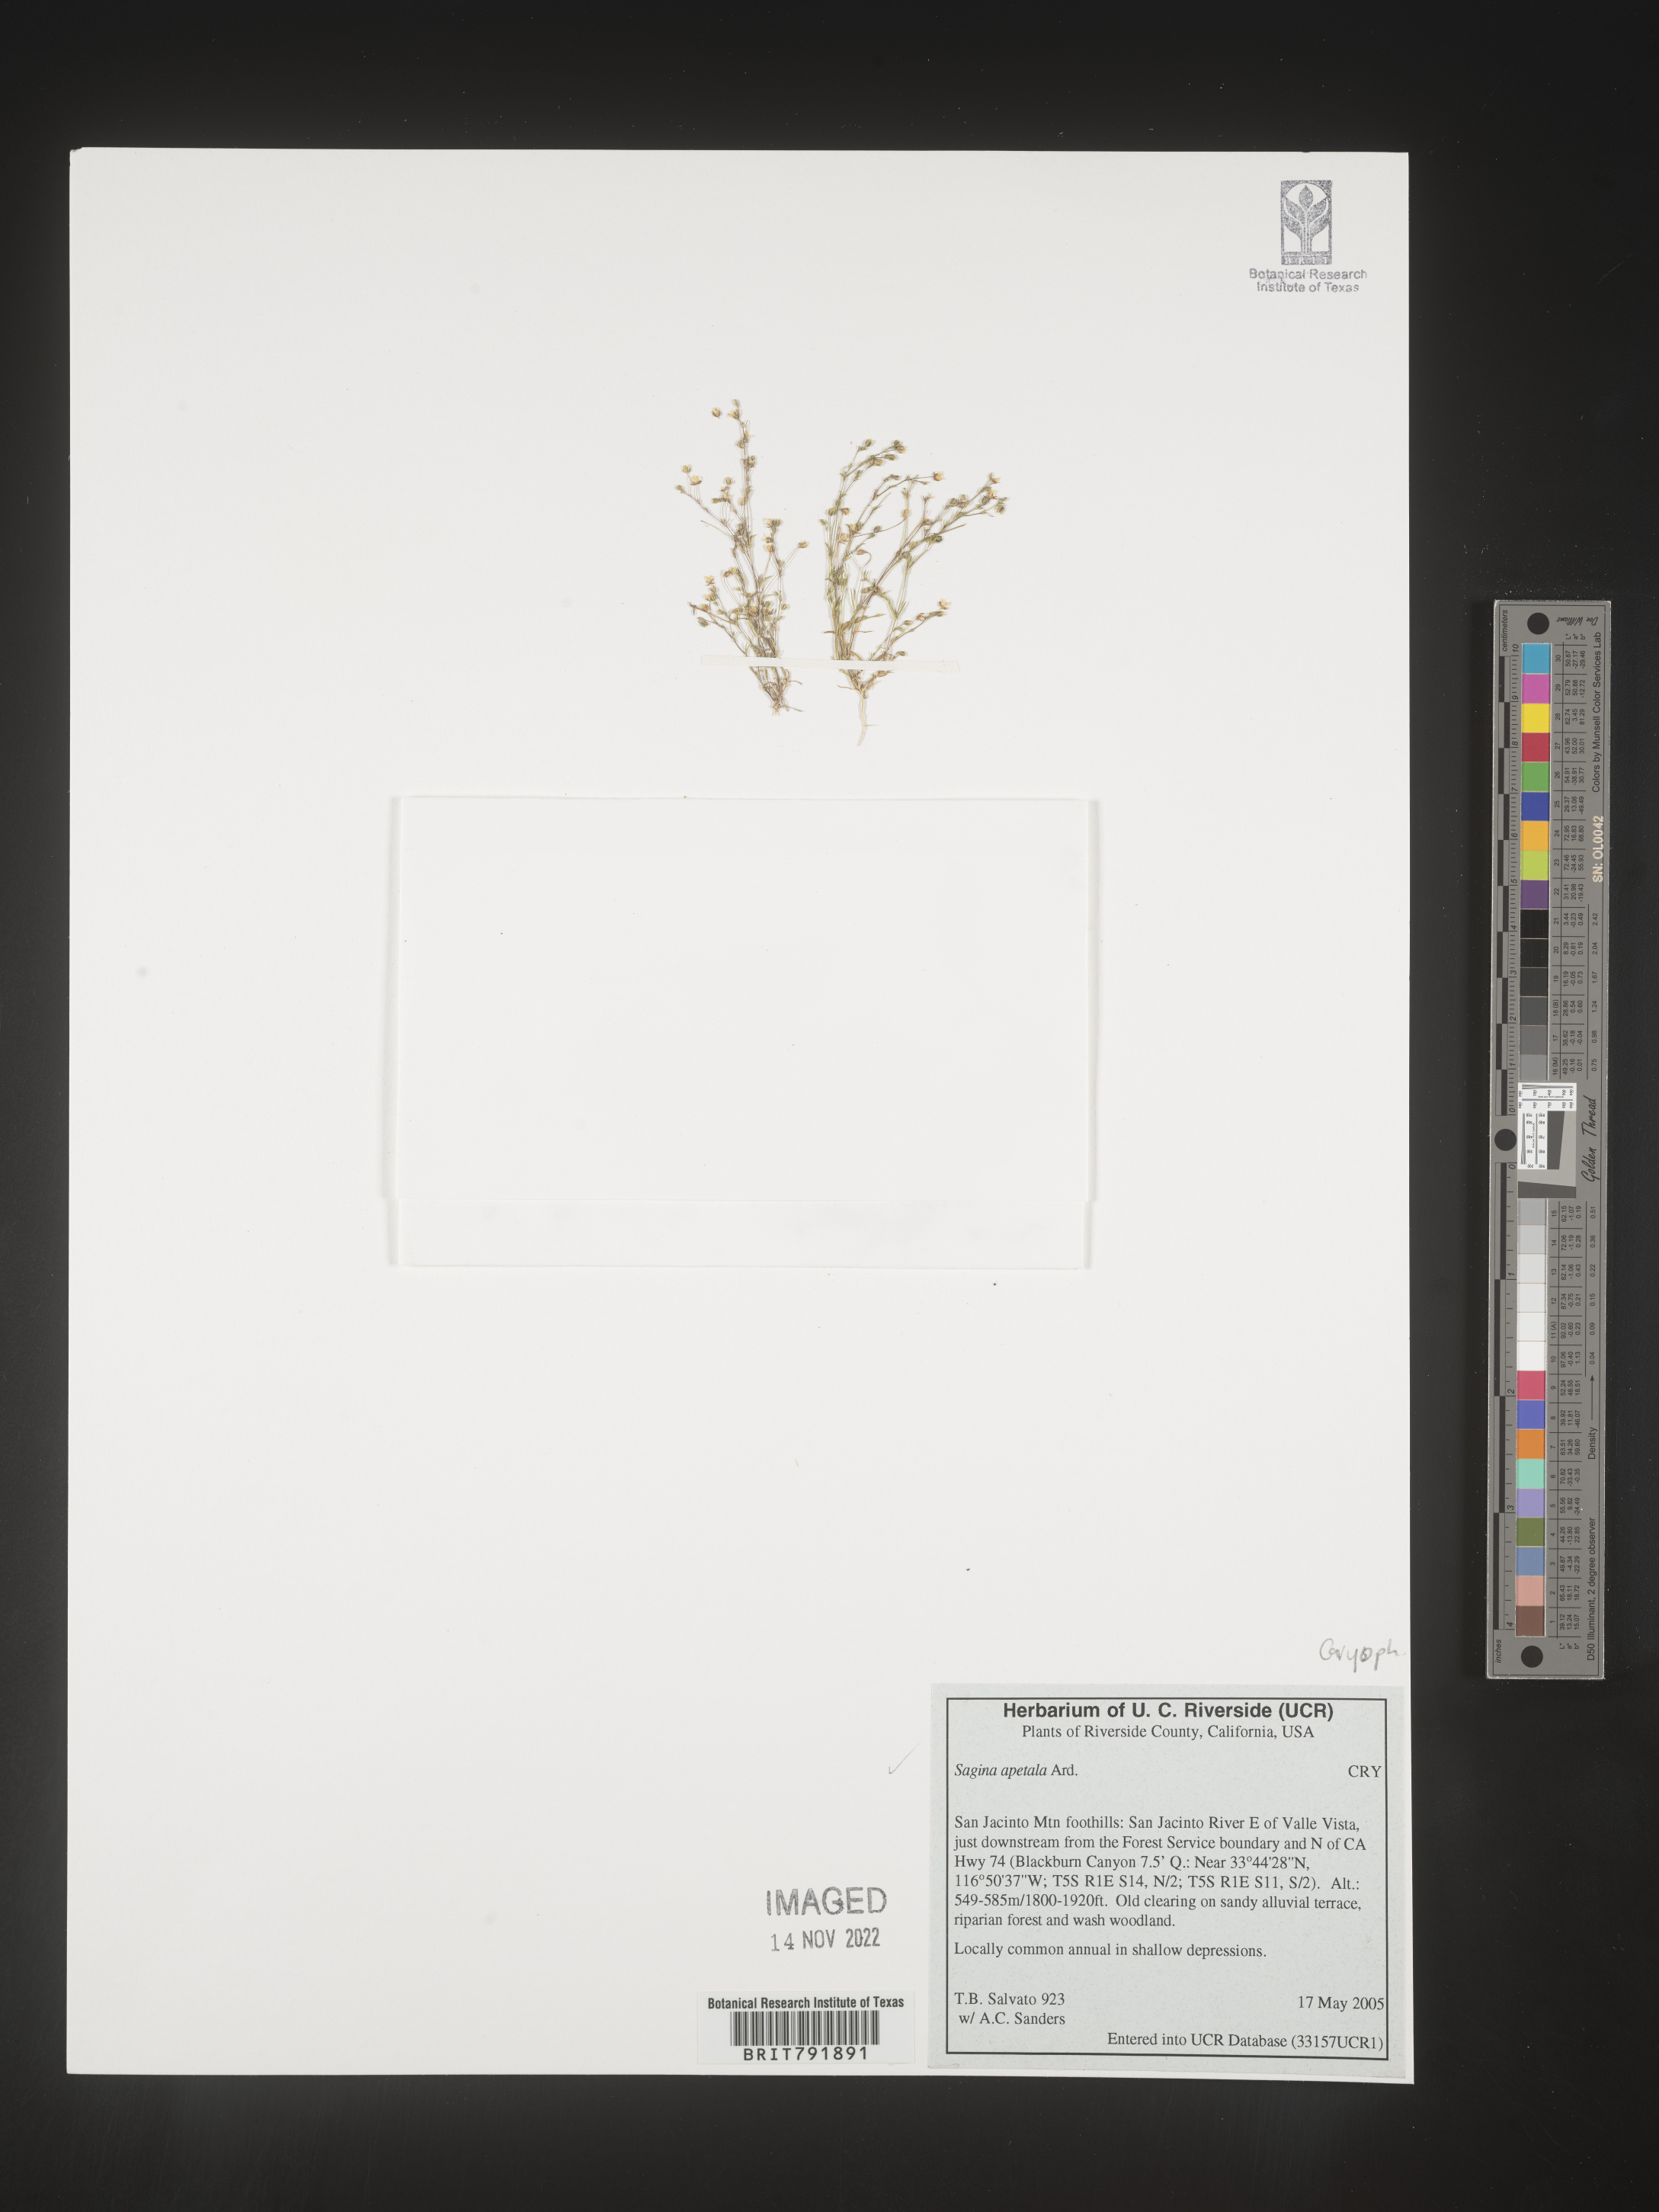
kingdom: Plantae
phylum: Tracheophyta
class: Magnoliopsida
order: Caryophyllales
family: Caryophyllaceae
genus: Sagina
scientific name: Sagina
